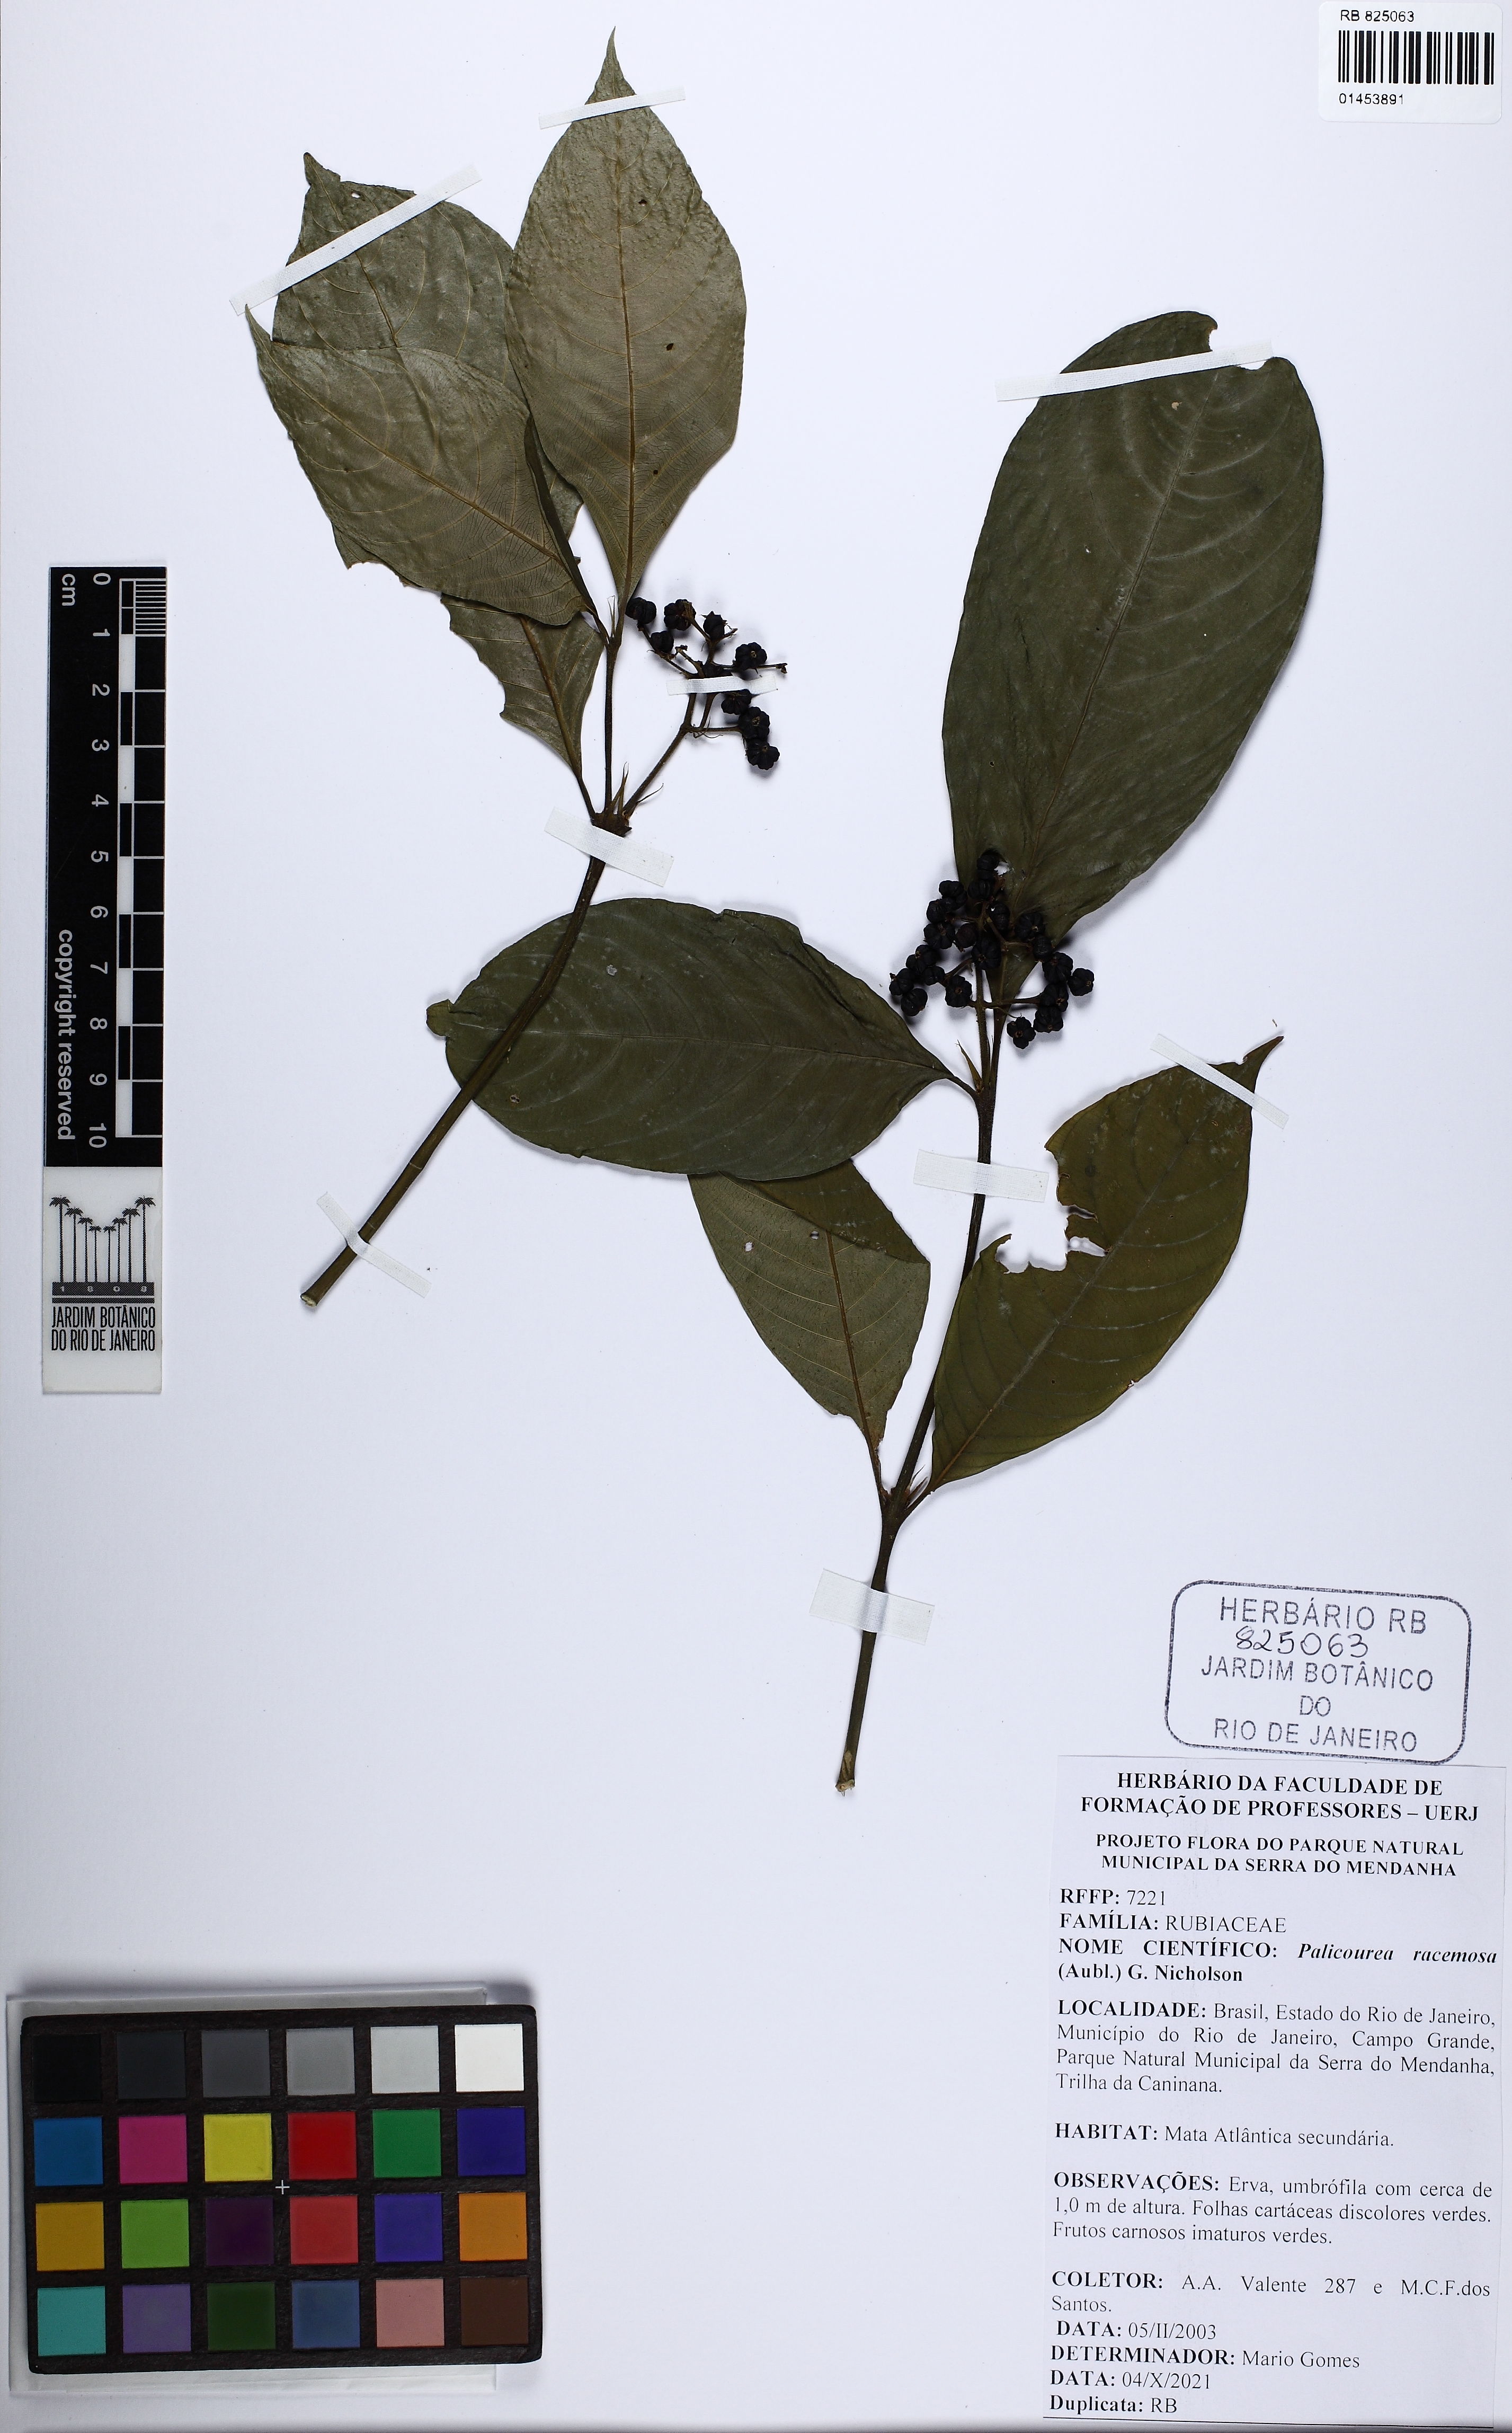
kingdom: Plantae
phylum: Tracheophyta
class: Magnoliopsida
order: Gentianales
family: Rubiaceae
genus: Palicourea
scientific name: Palicourea racemosa
